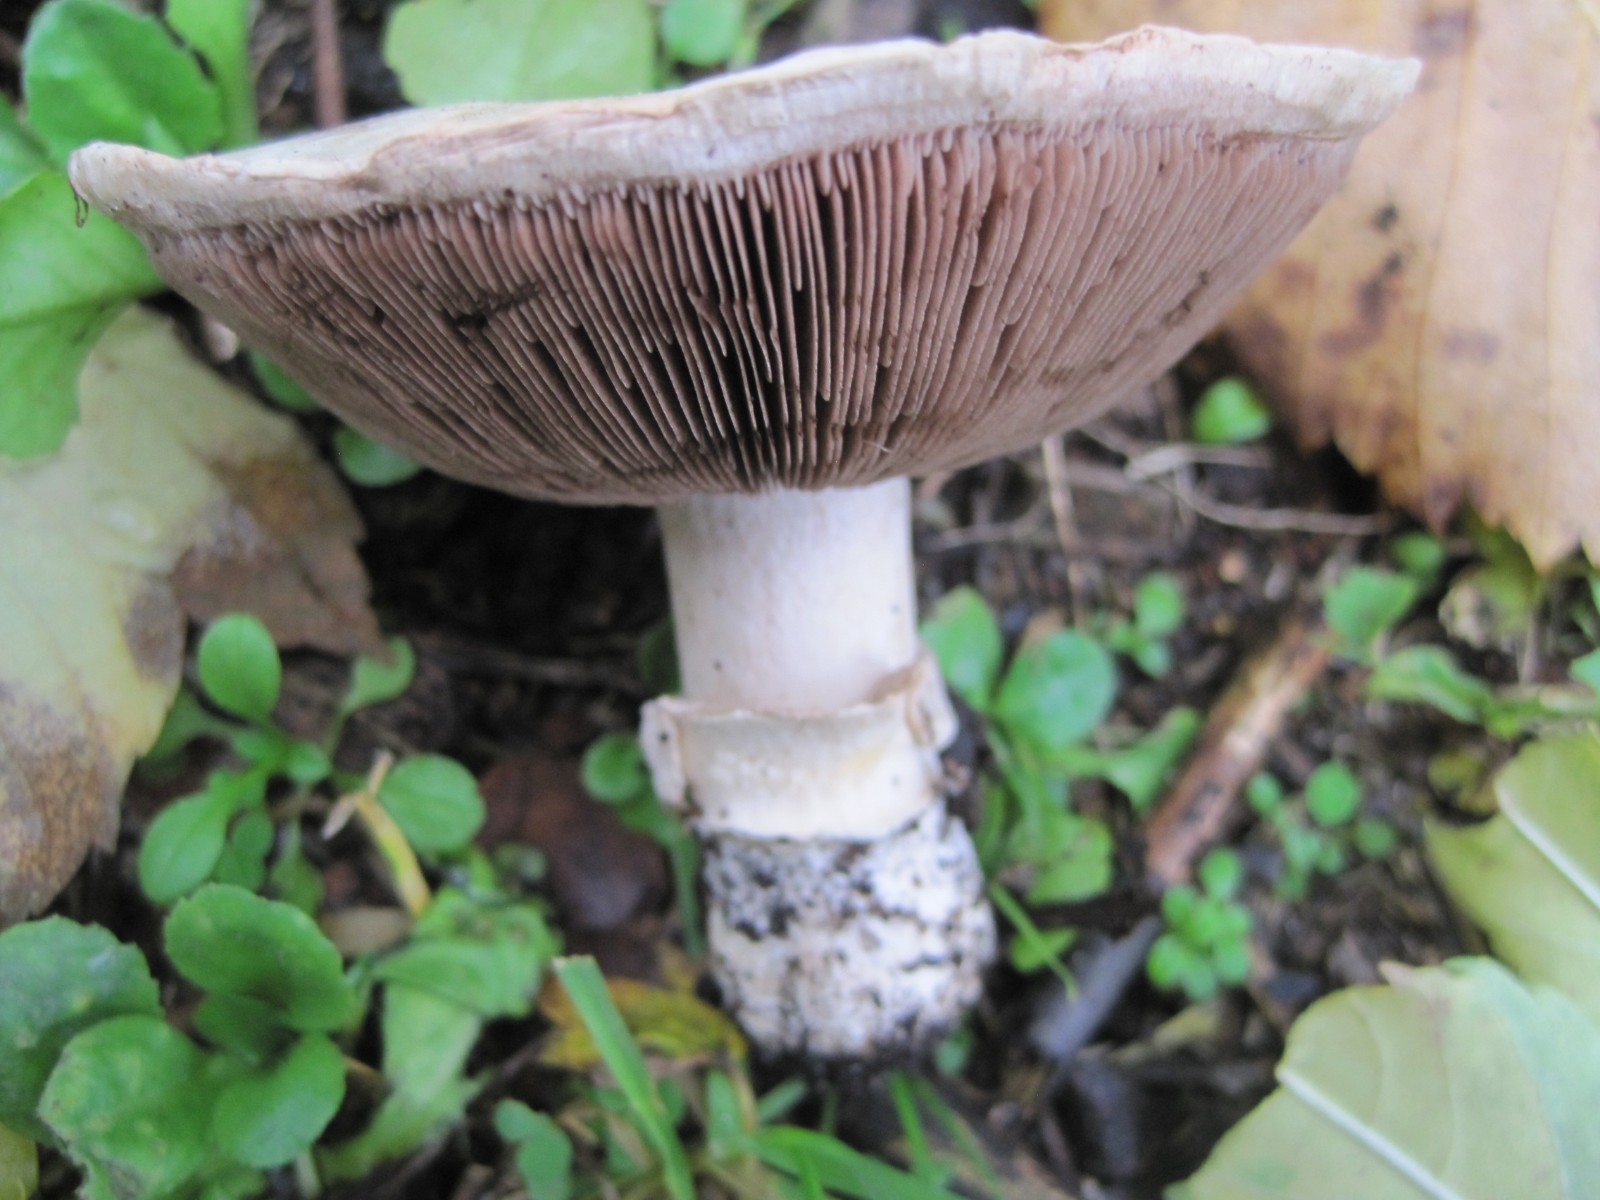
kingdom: Fungi
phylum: Basidiomycota
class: Agaricomycetes
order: Agaricales
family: Agaricaceae
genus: Agaricus
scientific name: Agaricus bitorquis
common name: vej-champignon
